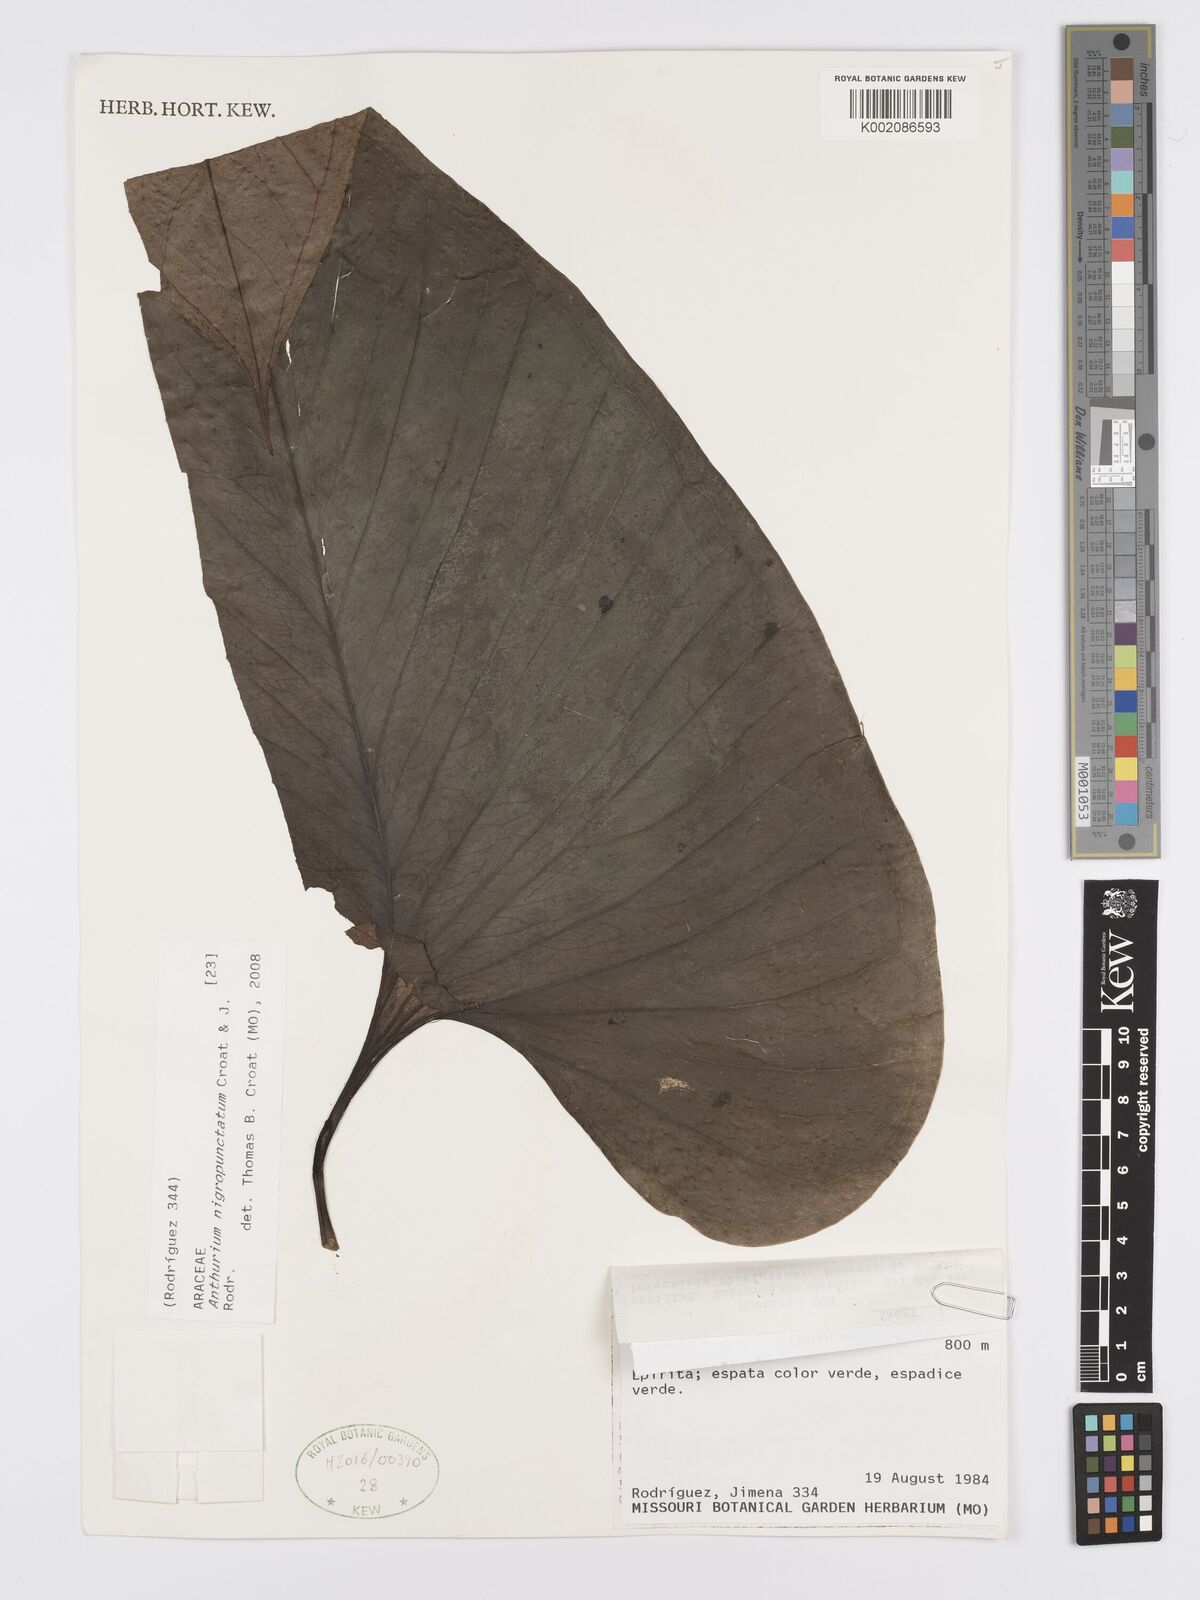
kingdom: Plantae
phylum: Tracheophyta
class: Liliopsida
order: Alismatales
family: Araceae
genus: Anthurium
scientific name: Anthurium nigropunctatum
